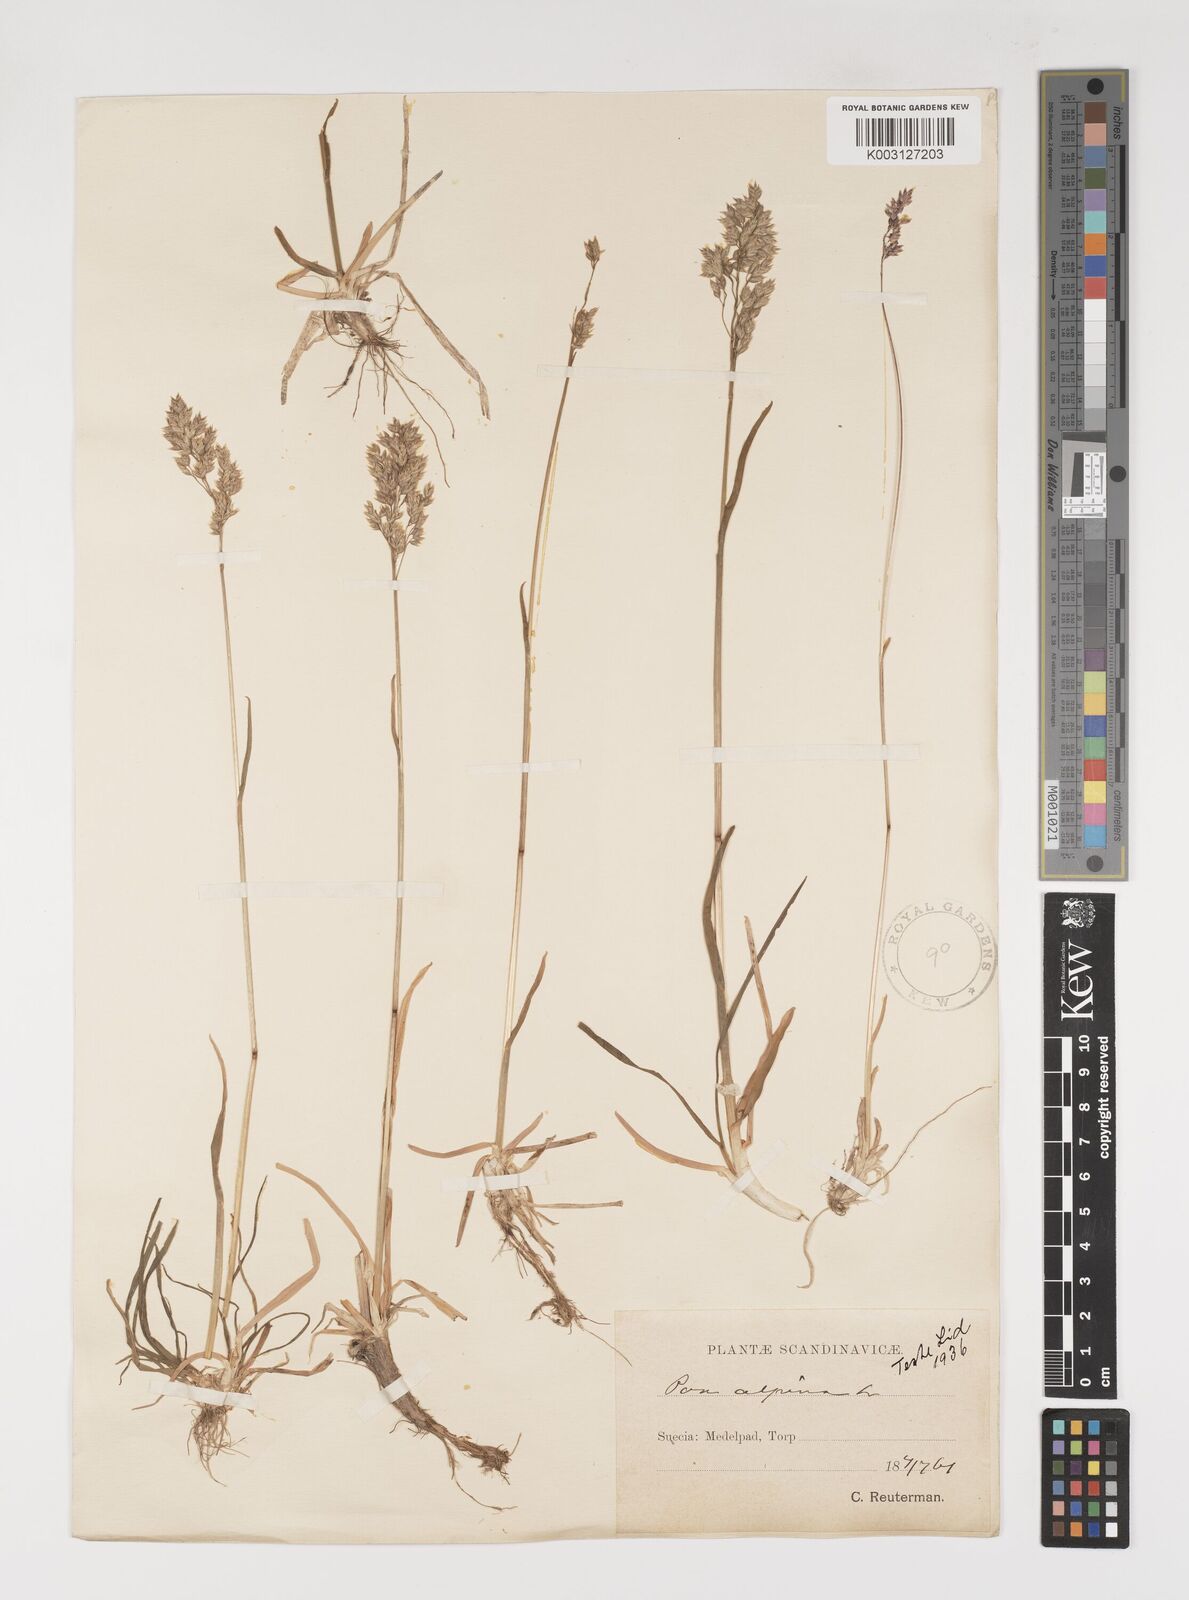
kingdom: Plantae
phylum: Tracheophyta
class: Liliopsida
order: Poales
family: Poaceae
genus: Poa
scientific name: Poa alpina
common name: Alpine bluegrass
